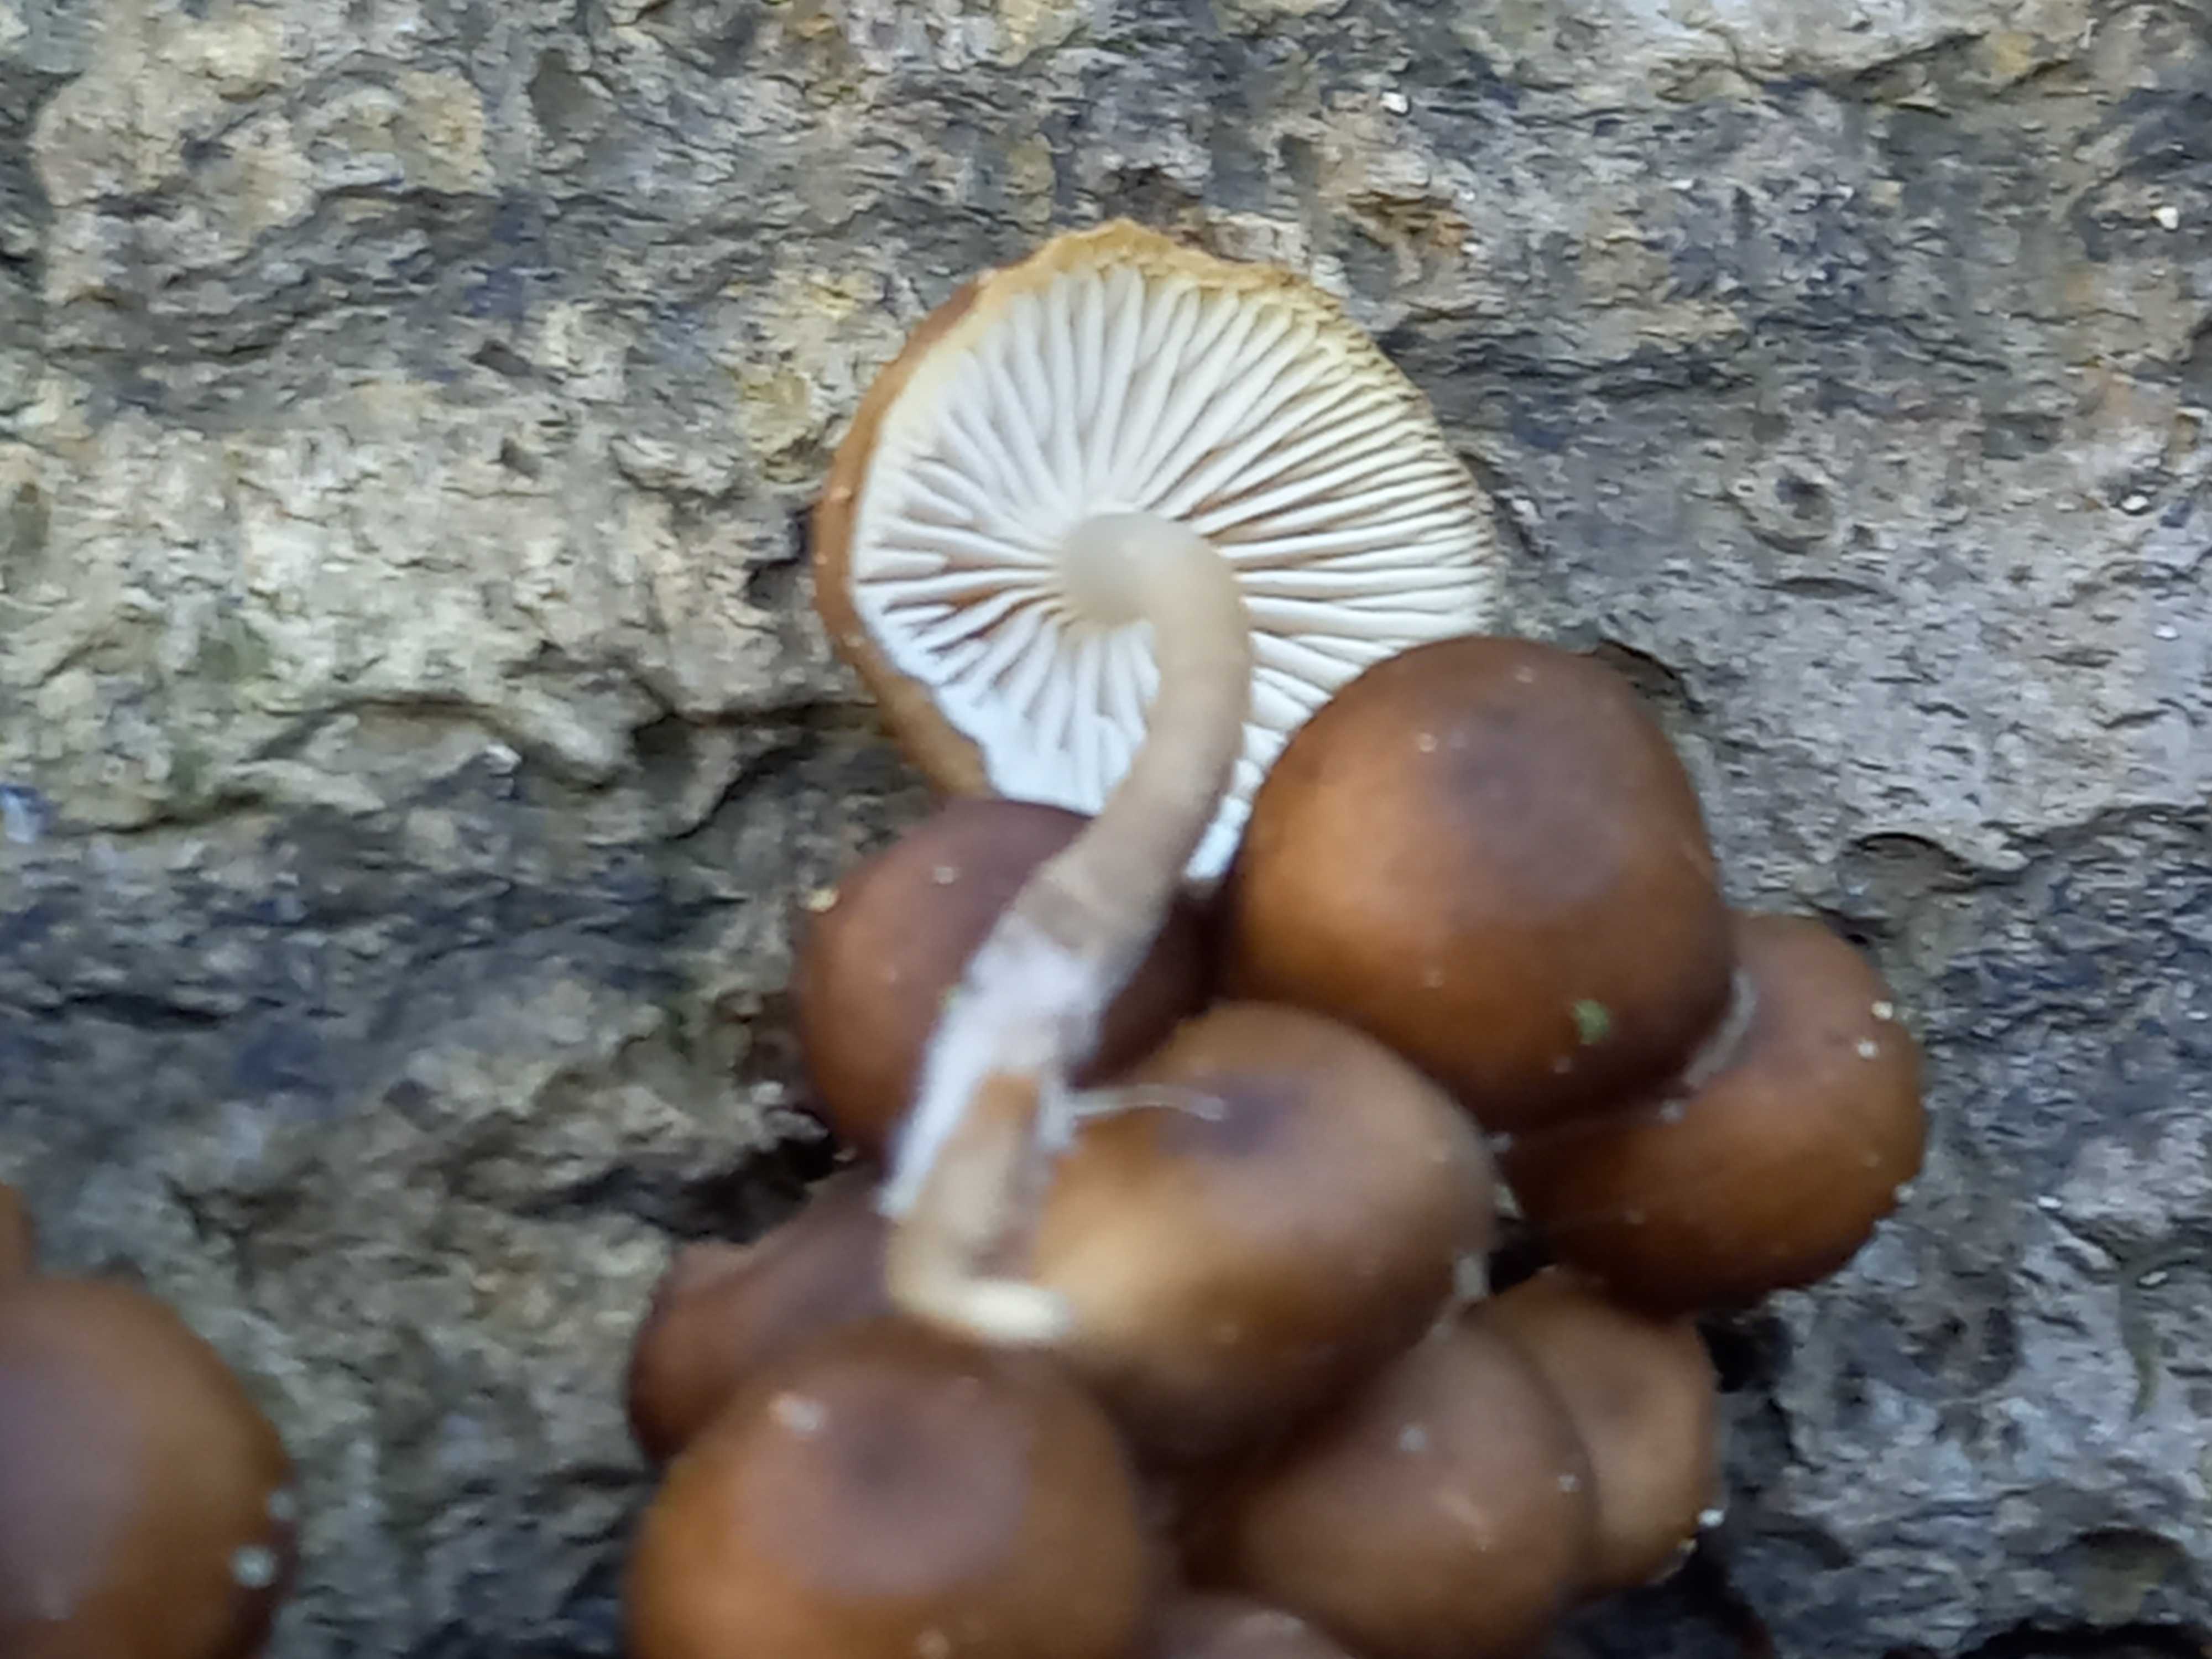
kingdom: Fungi
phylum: Basidiomycota
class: Agaricomycetes
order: Agaricales
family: Mycenaceae
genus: Mycena
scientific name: Mycena tintinnabulum
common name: vinter-huesvamp
